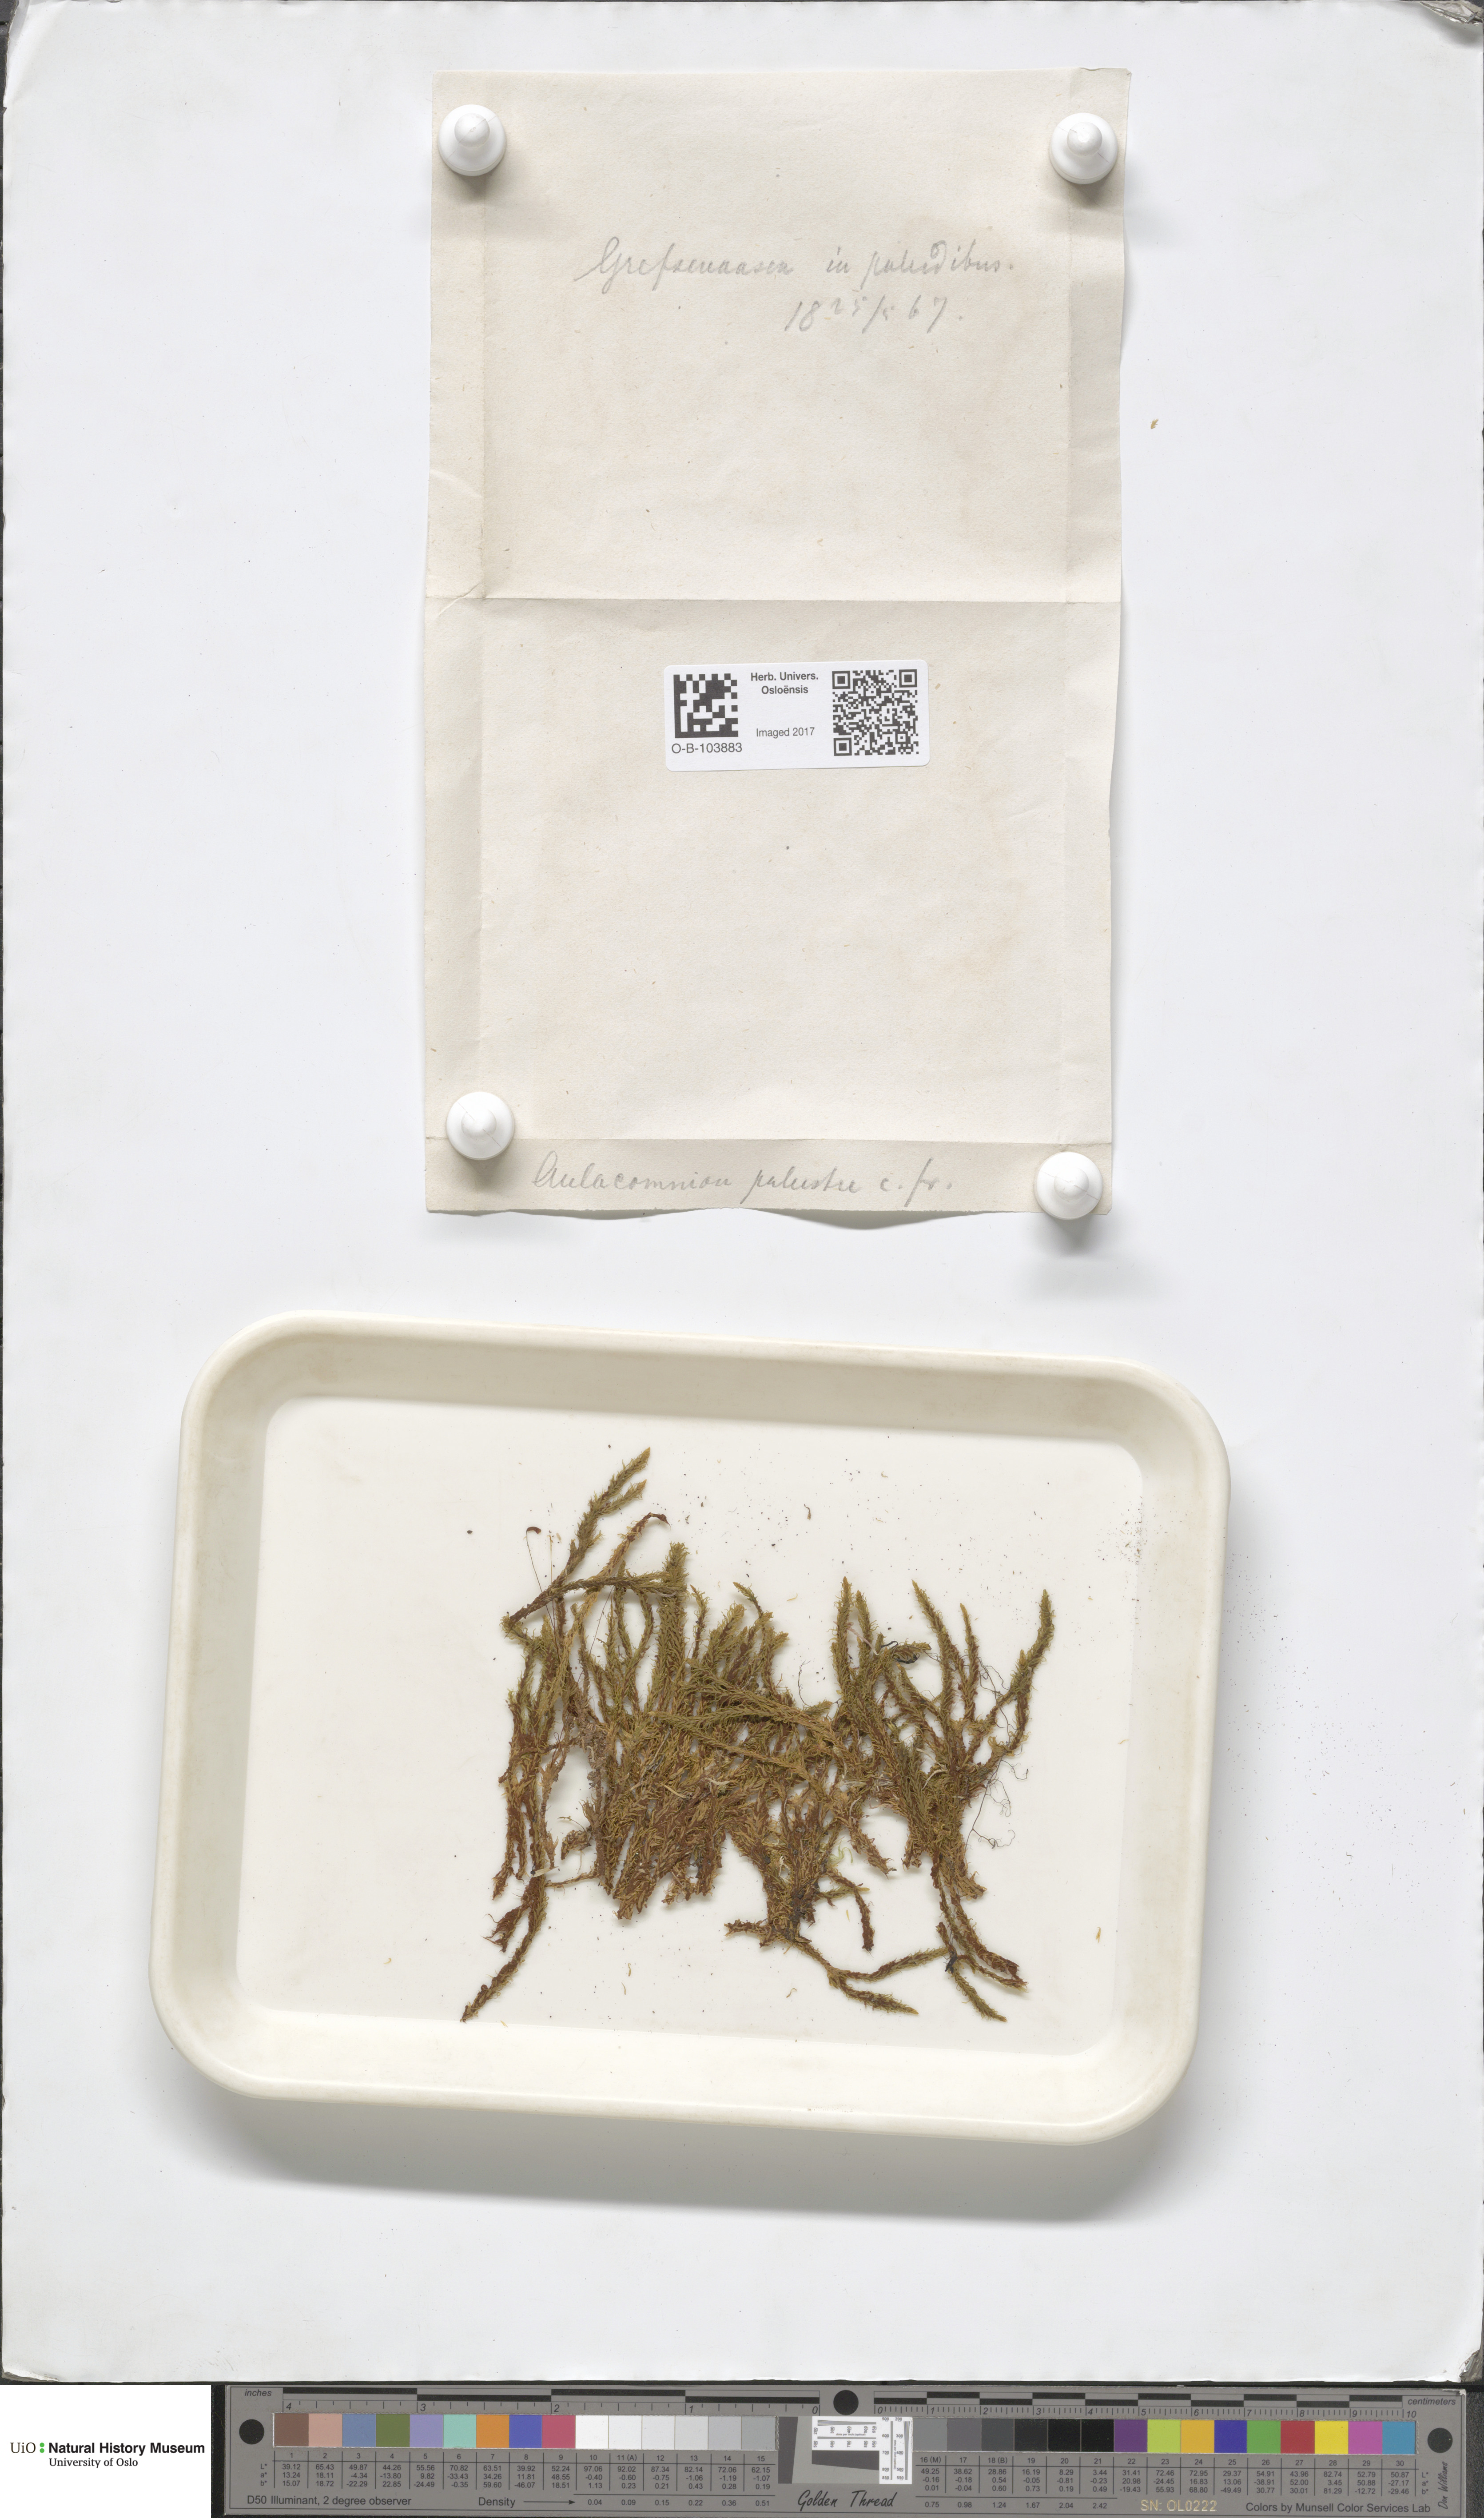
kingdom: Plantae
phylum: Bryophyta
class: Bryopsida
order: Aulacomniales
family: Aulacomniaceae
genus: Aulacomnium
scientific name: Aulacomnium palustre
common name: Bog groove-moss
